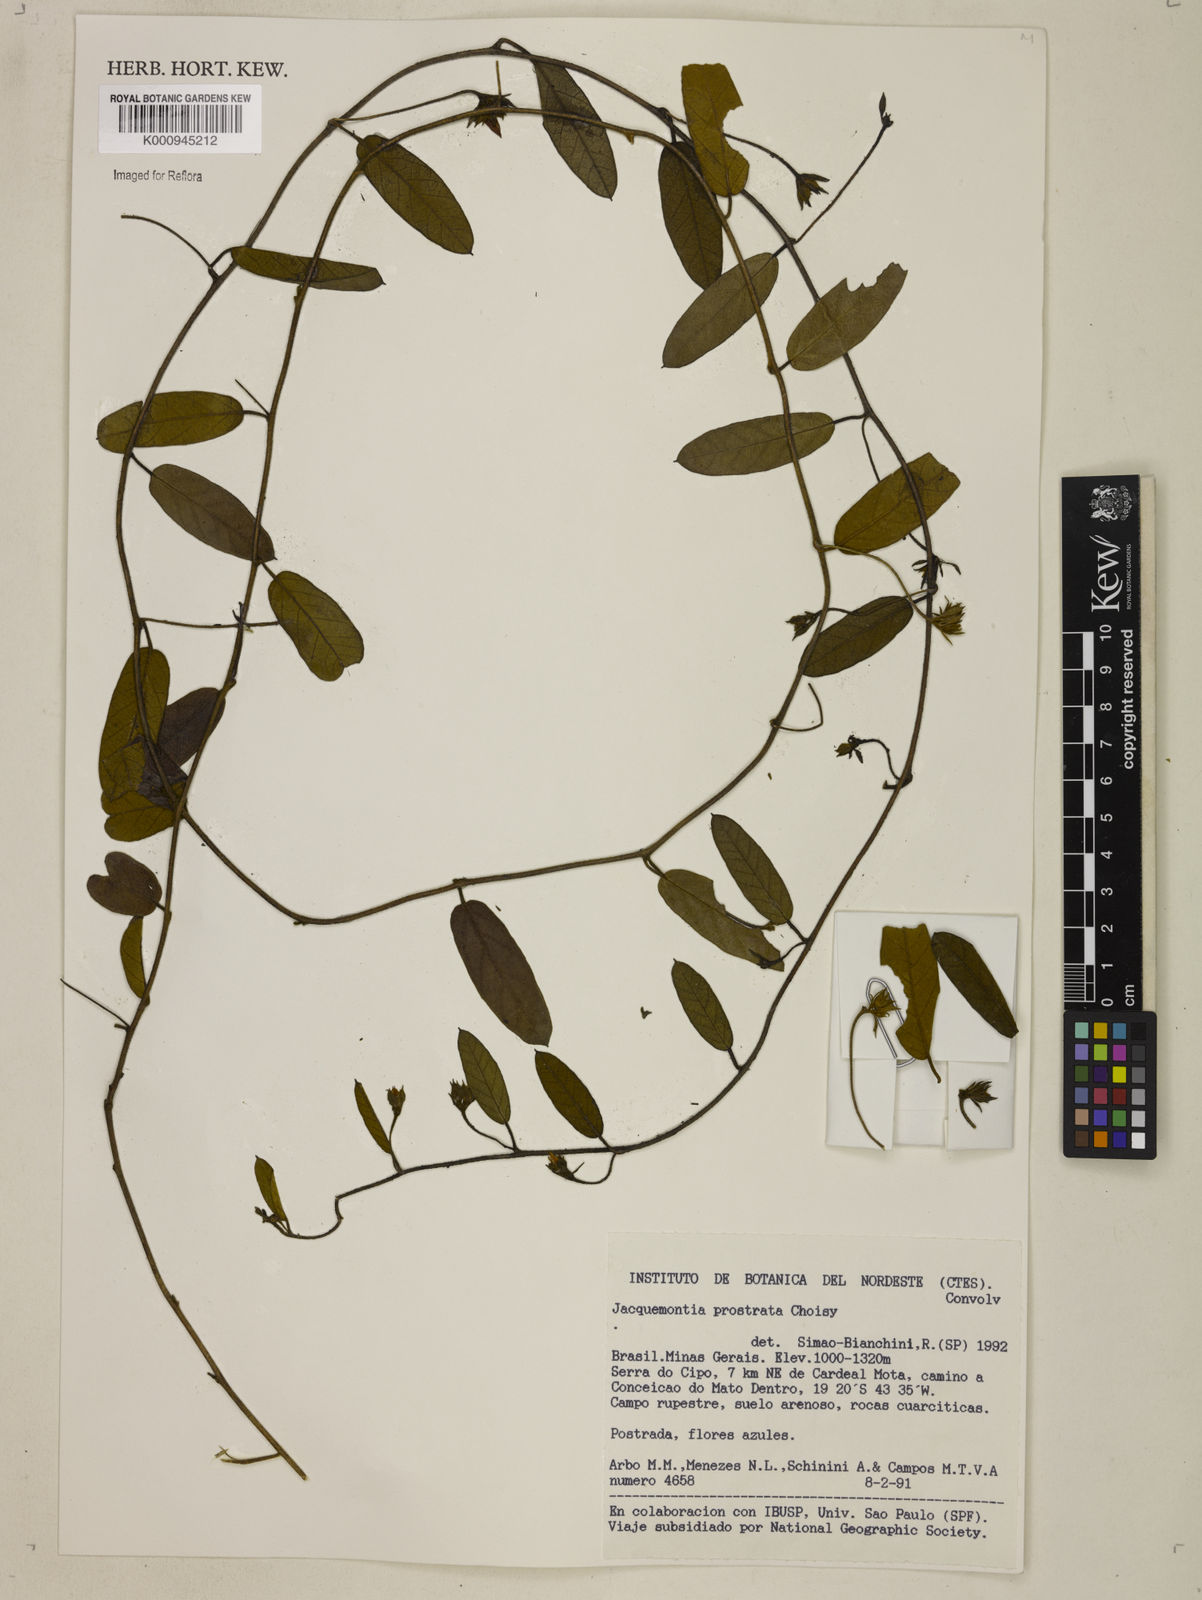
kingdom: Plantae
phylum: Tracheophyta
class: Magnoliopsida
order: Solanales
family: Convolvulaceae
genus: Jacquemontia
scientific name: Jacquemontia prostrata
